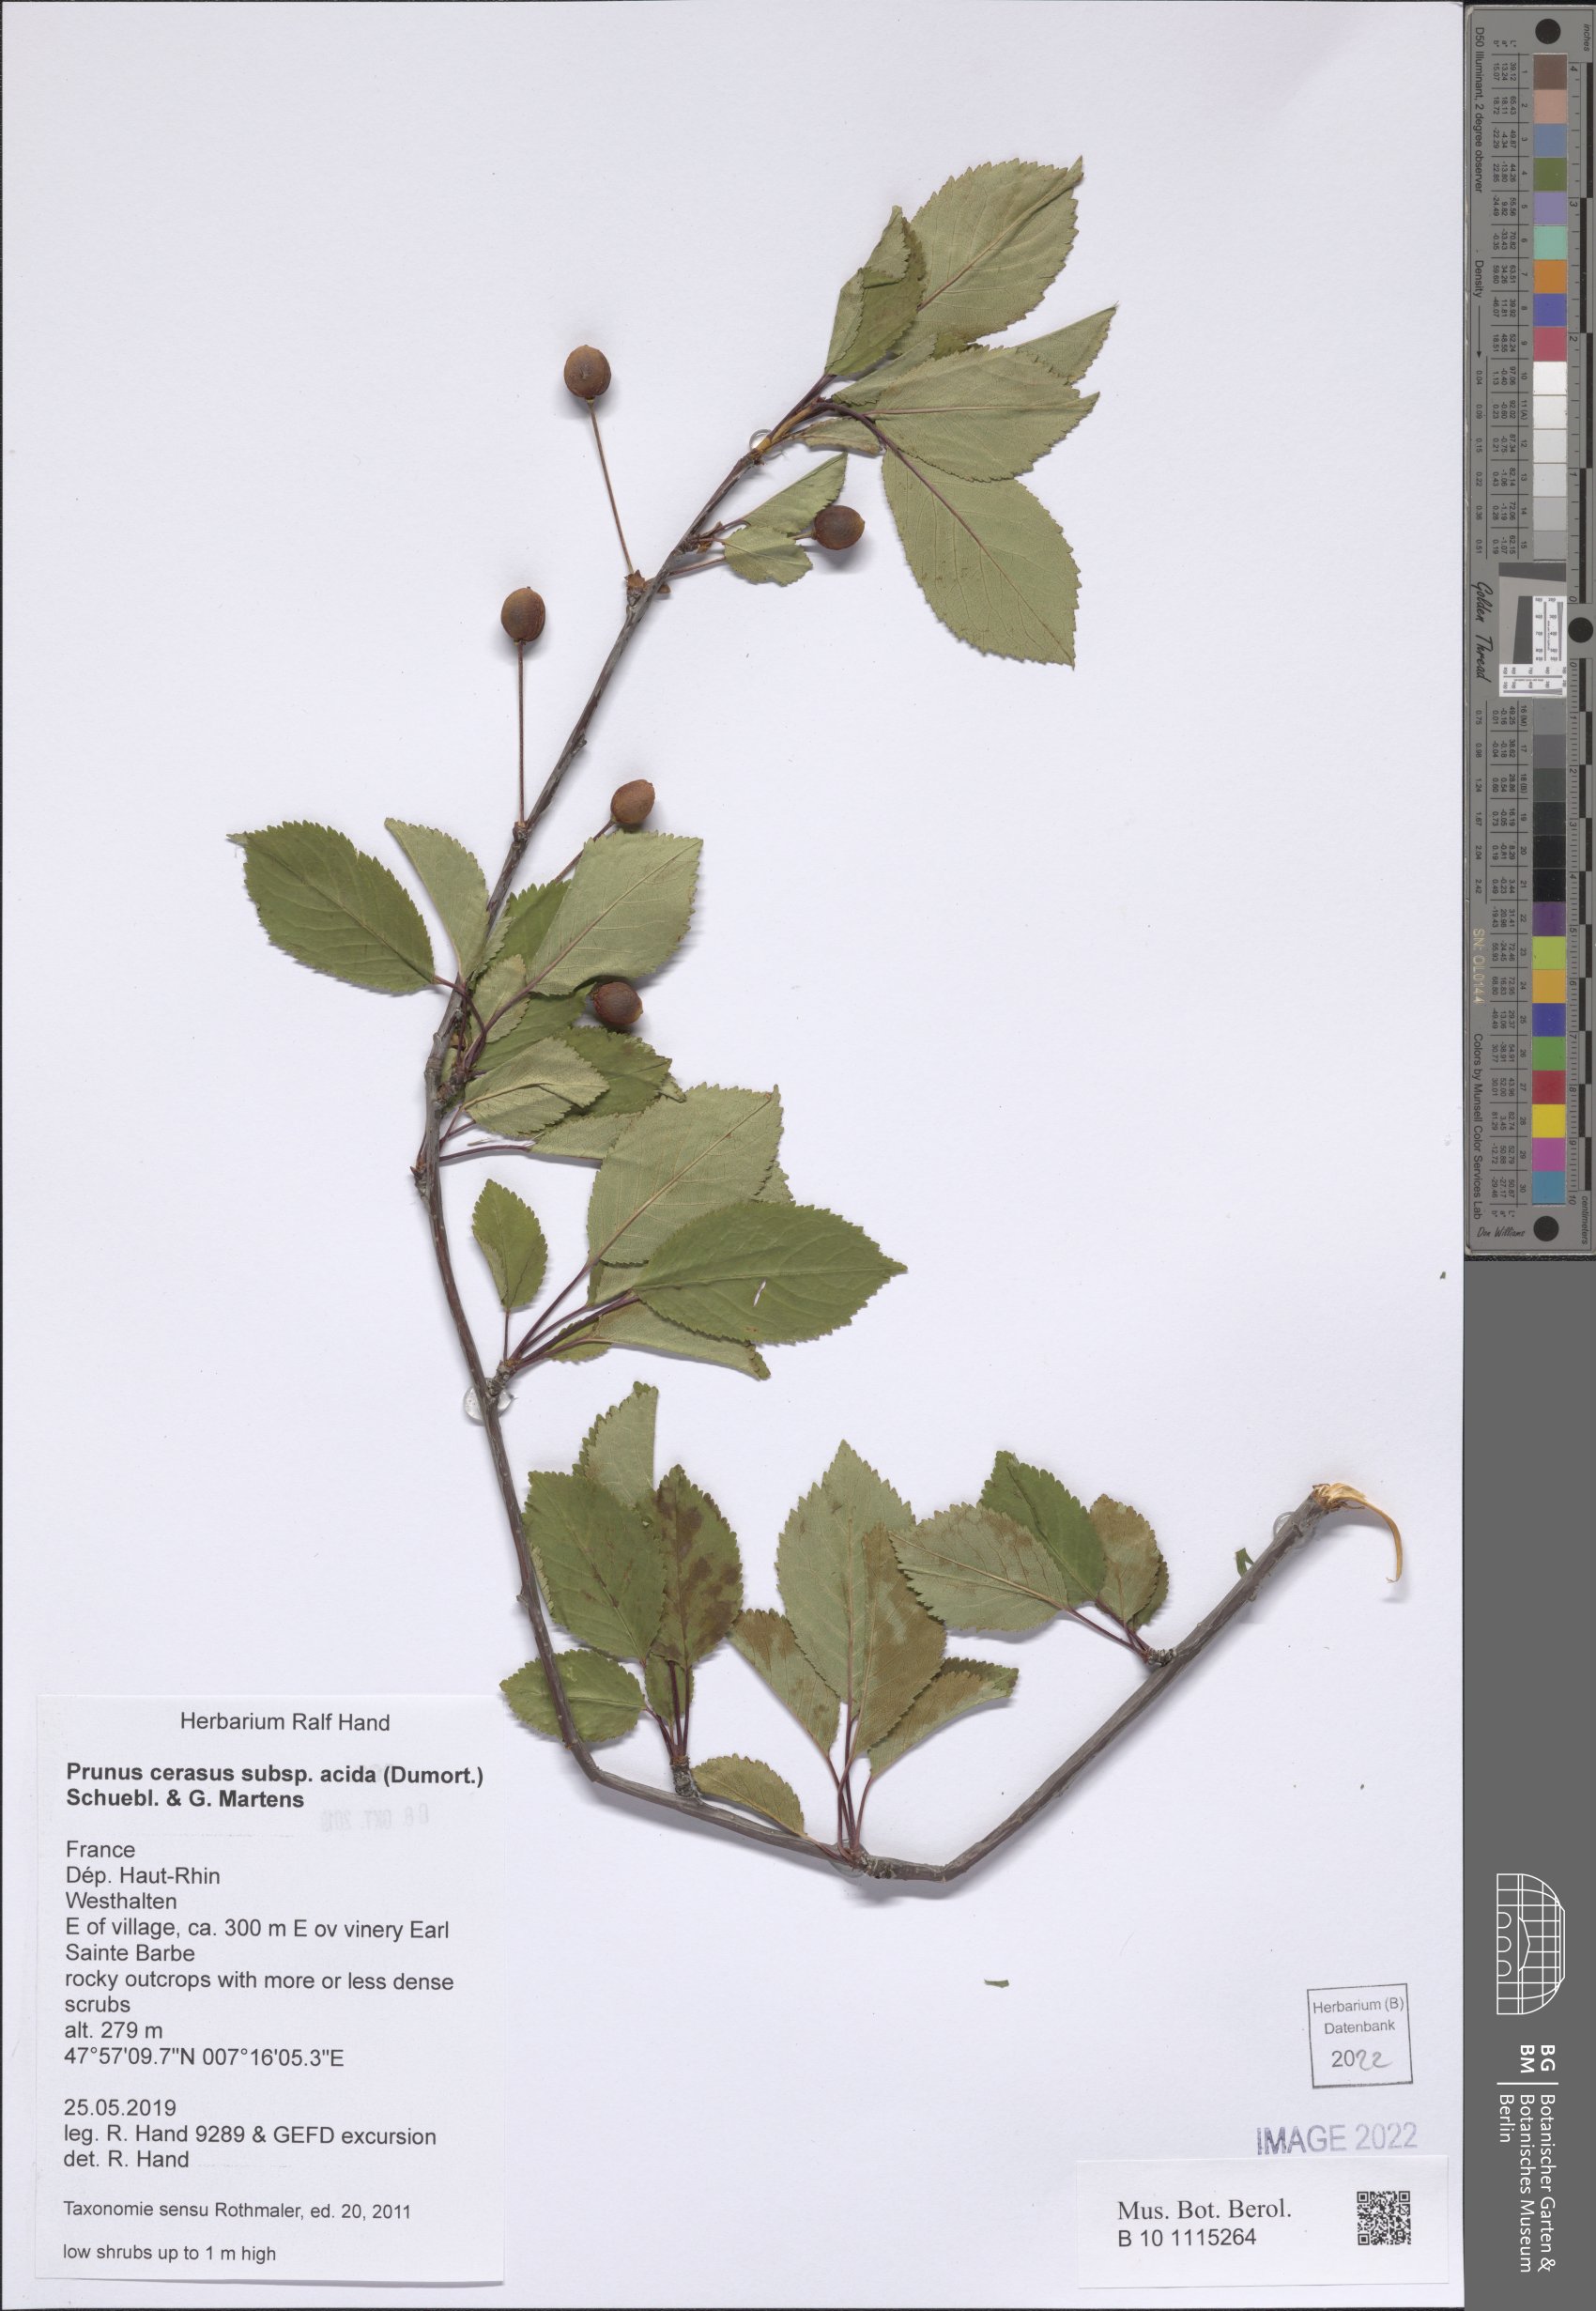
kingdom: Plantae
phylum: Tracheophyta
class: Magnoliopsida
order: Rosales
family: Rosaceae
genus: Prunus
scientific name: Prunus cerasus
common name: Morello cherry
